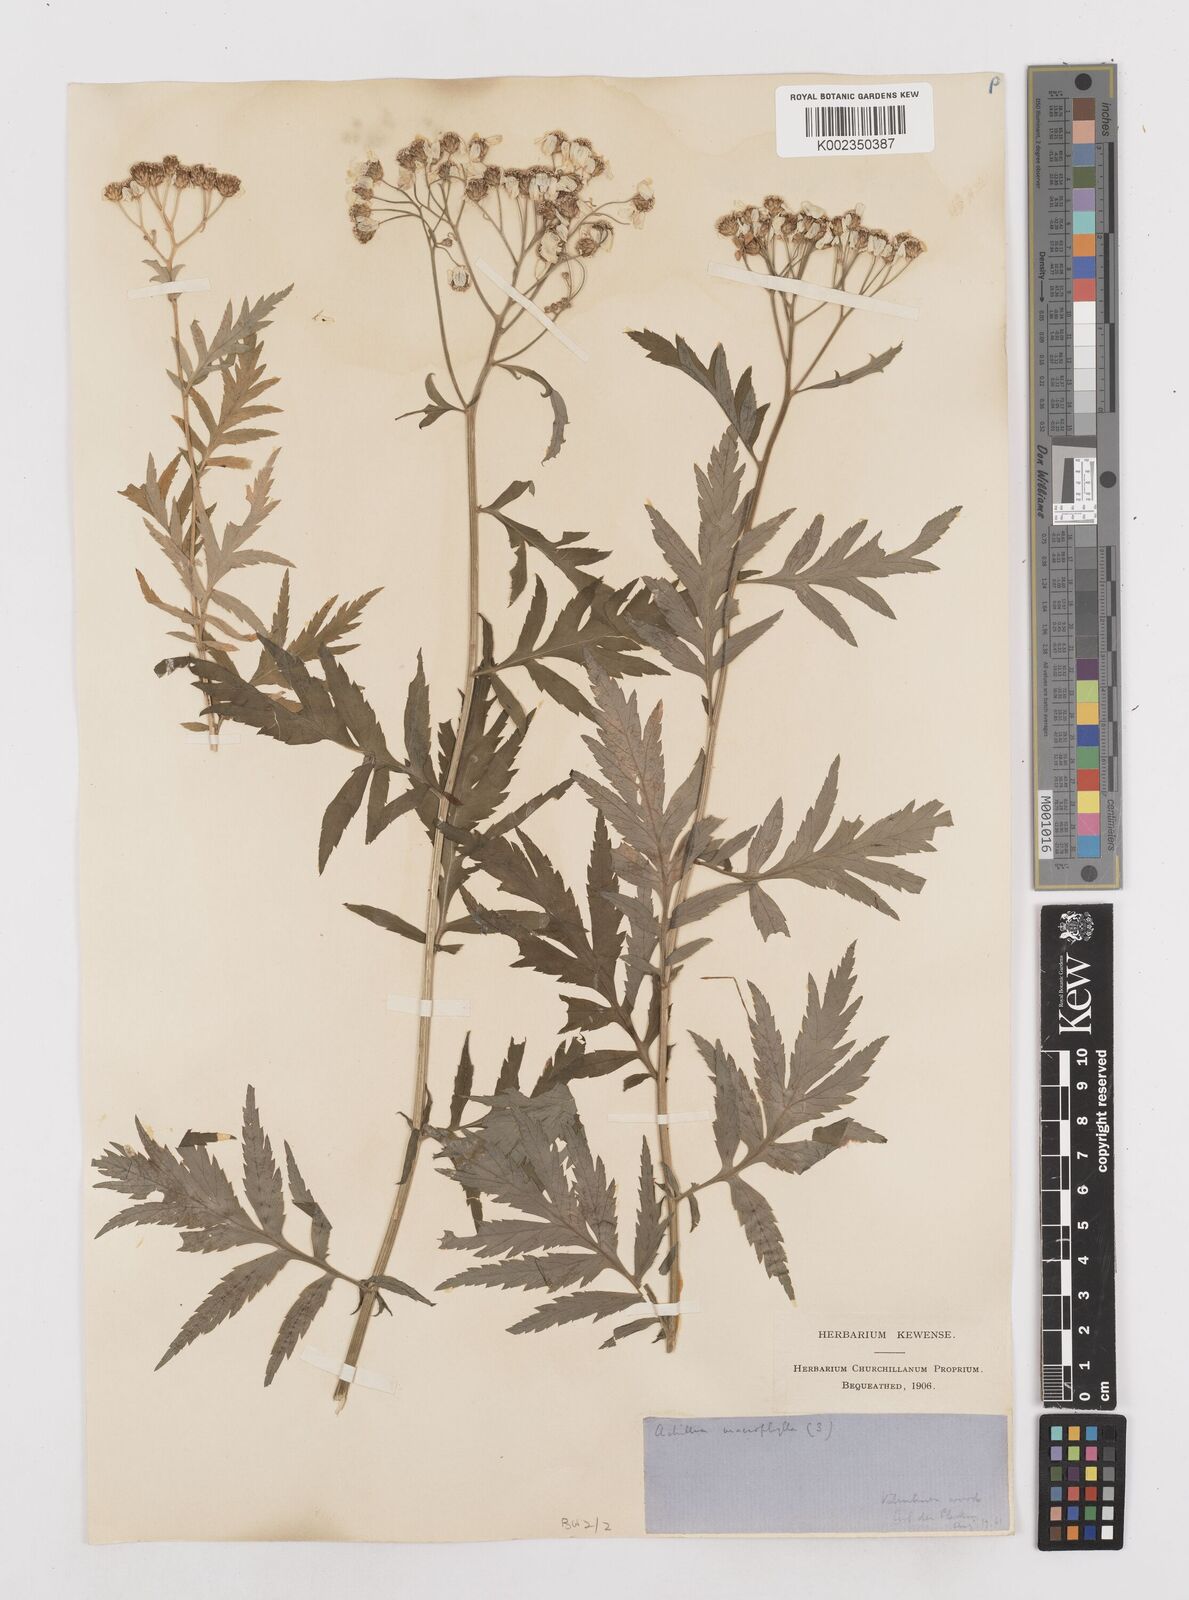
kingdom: Plantae
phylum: Tracheophyta
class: Magnoliopsida
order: Asterales
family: Asteraceae
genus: Achillea
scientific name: Achillea macrophylla
